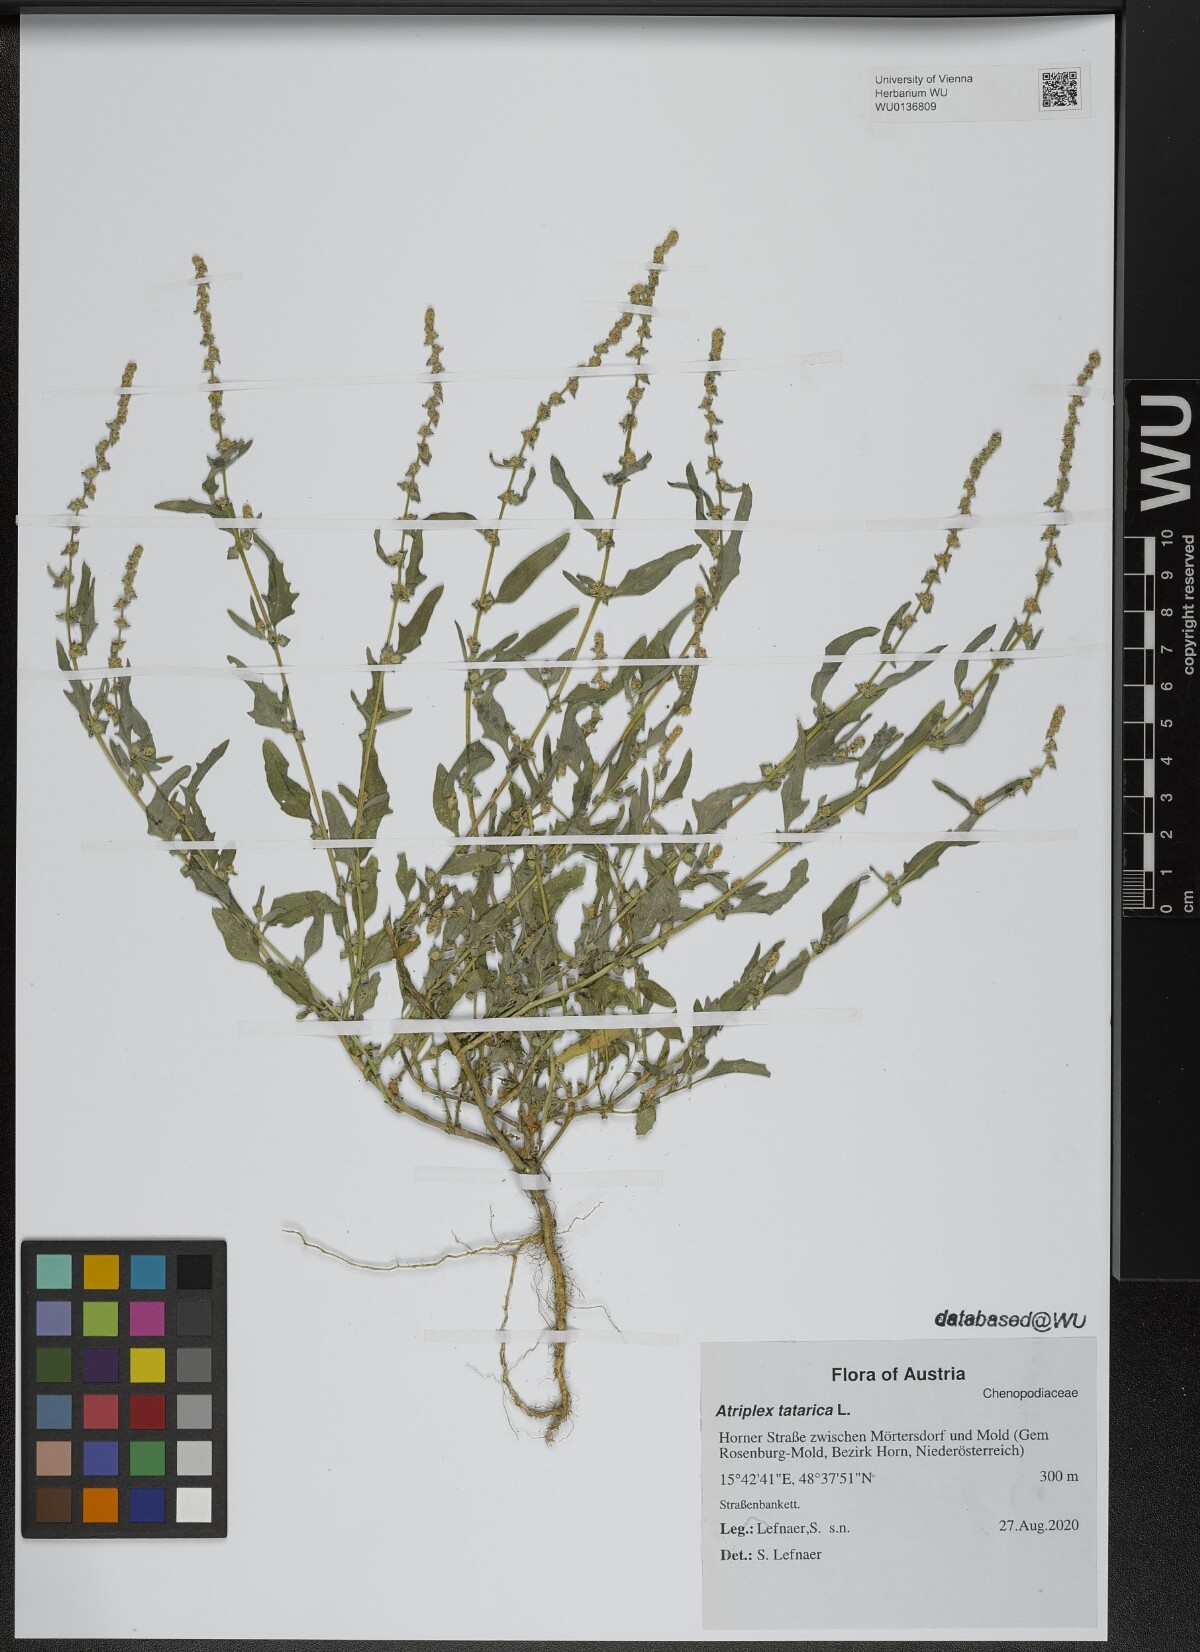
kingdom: Plantae
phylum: Tracheophyta
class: Magnoliopsida
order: Caryophyllales
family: Amaranthaceae
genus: Atriplex
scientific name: Atriplex tatarica
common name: Tatarian orache
